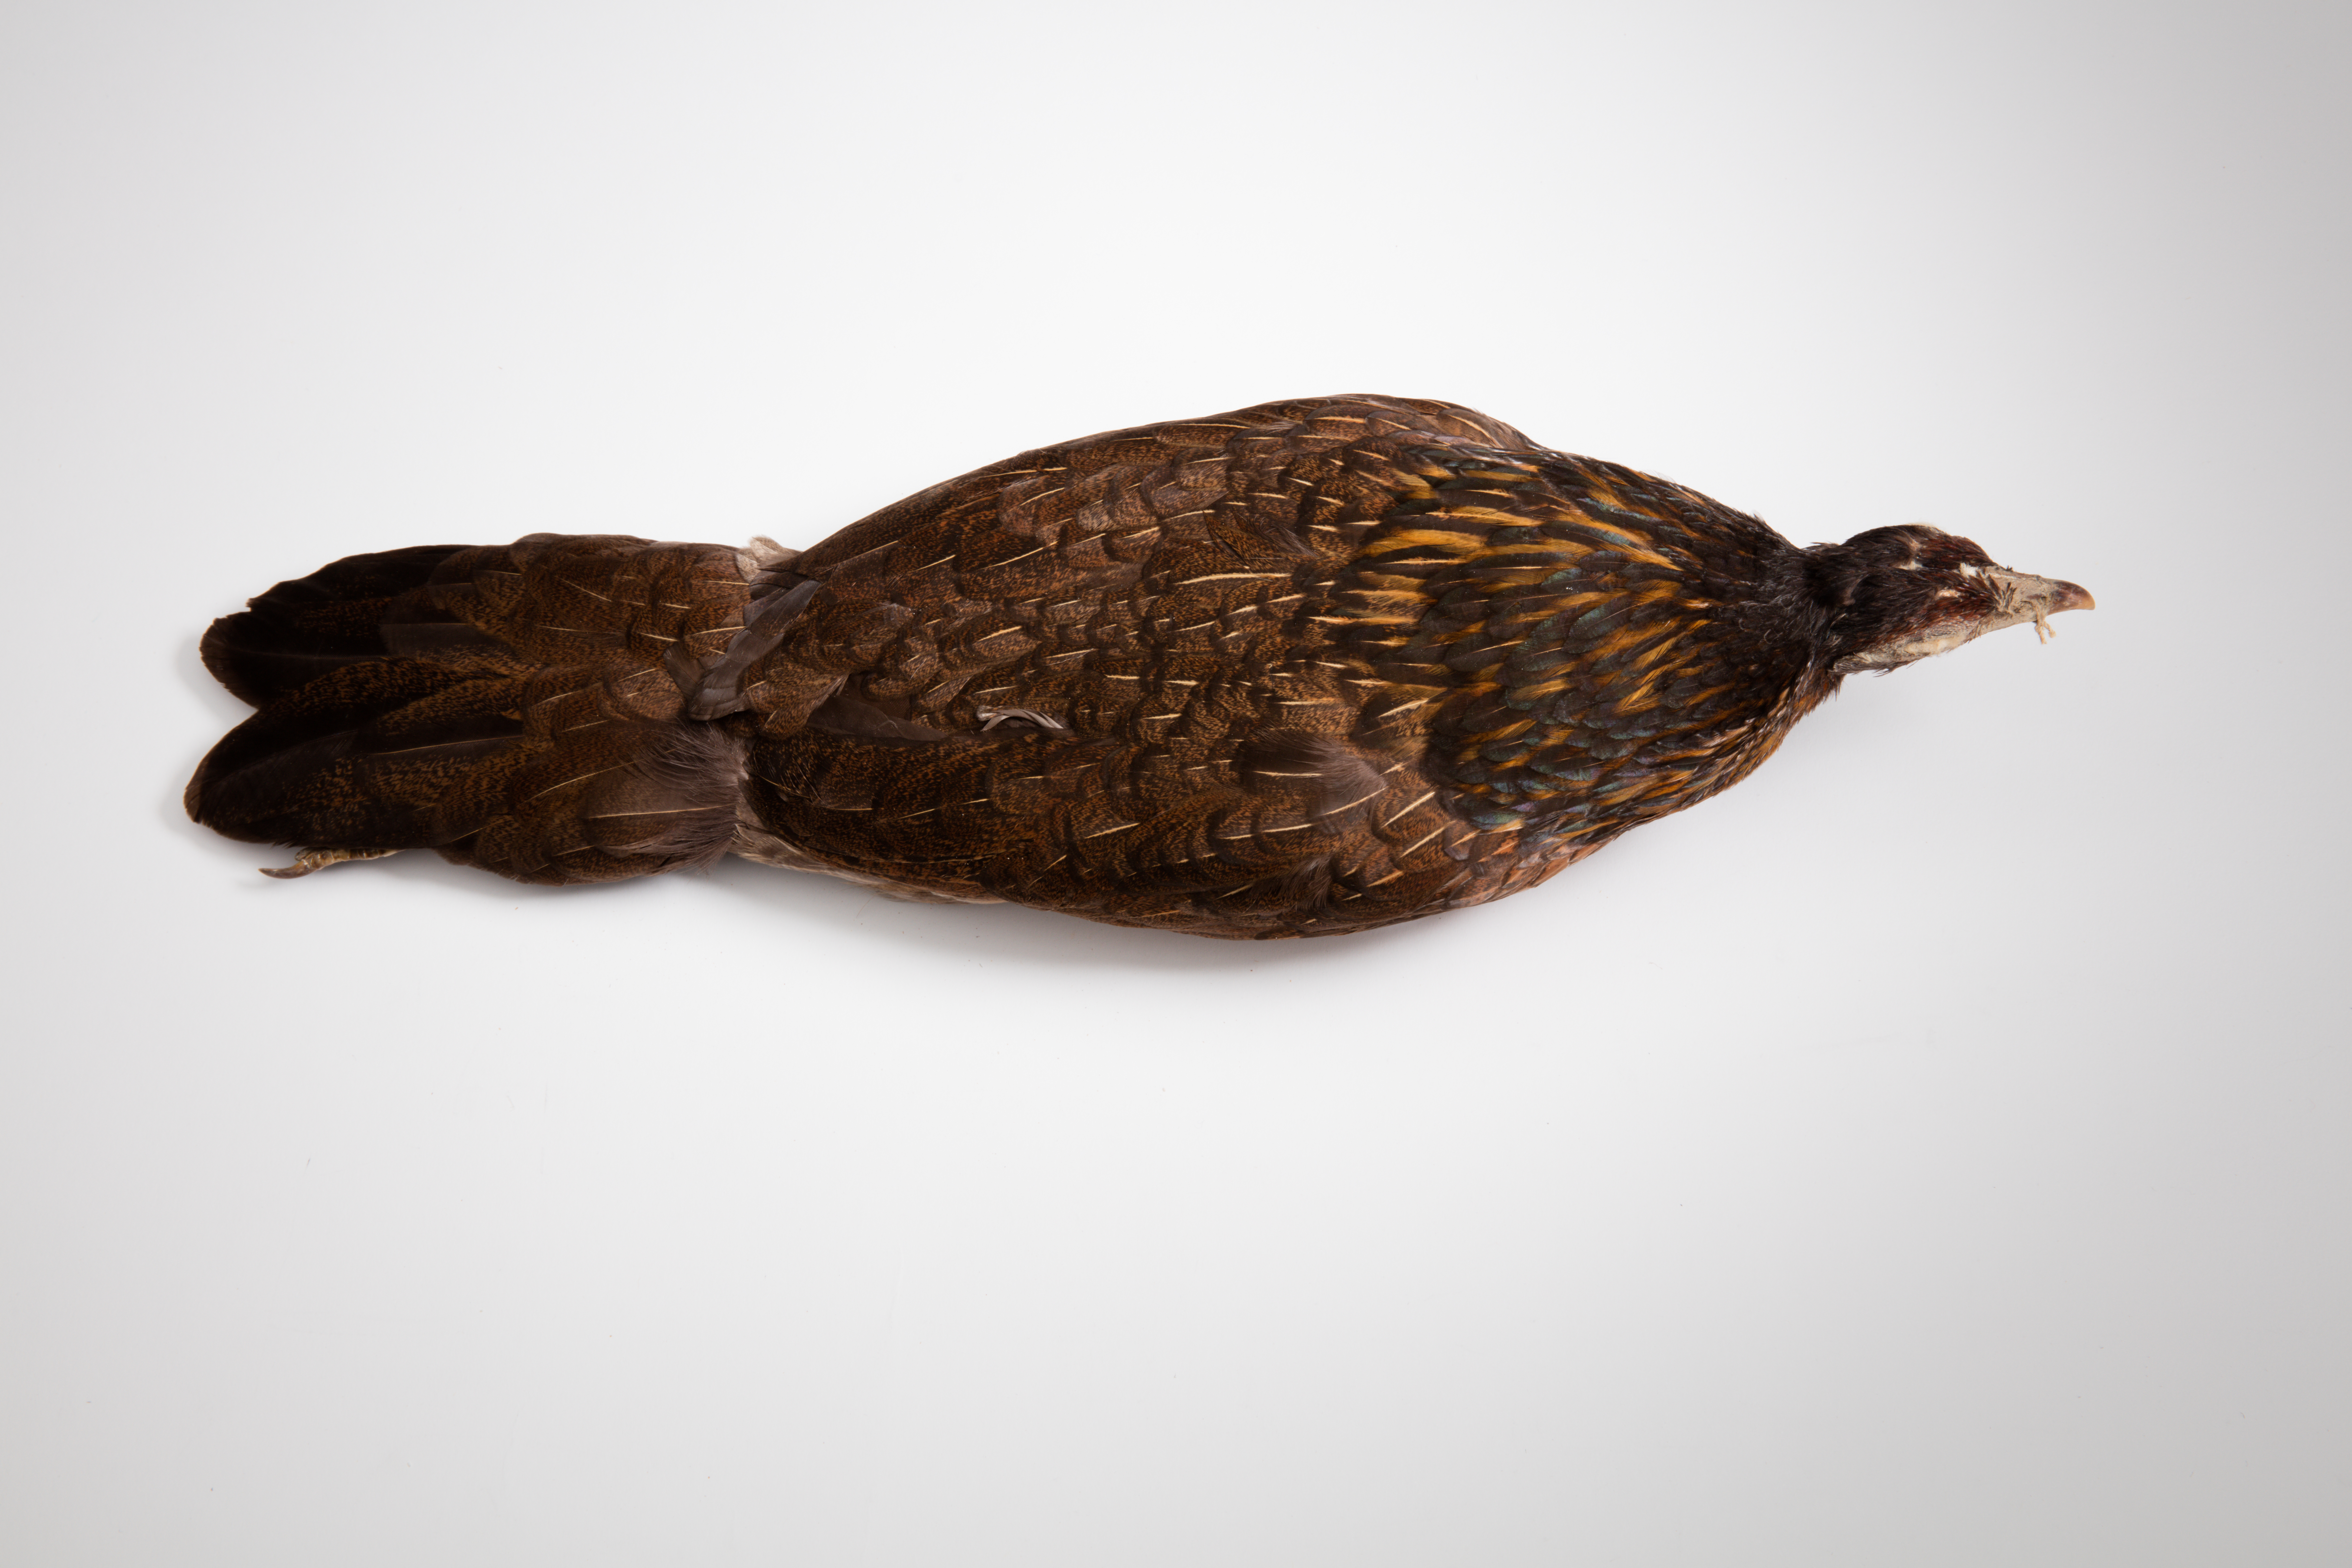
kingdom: Animalia
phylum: Chordata
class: Aves
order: Galliformes
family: Phasianidae
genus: Gallus
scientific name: Gallus gallus
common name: Red junglefowl
